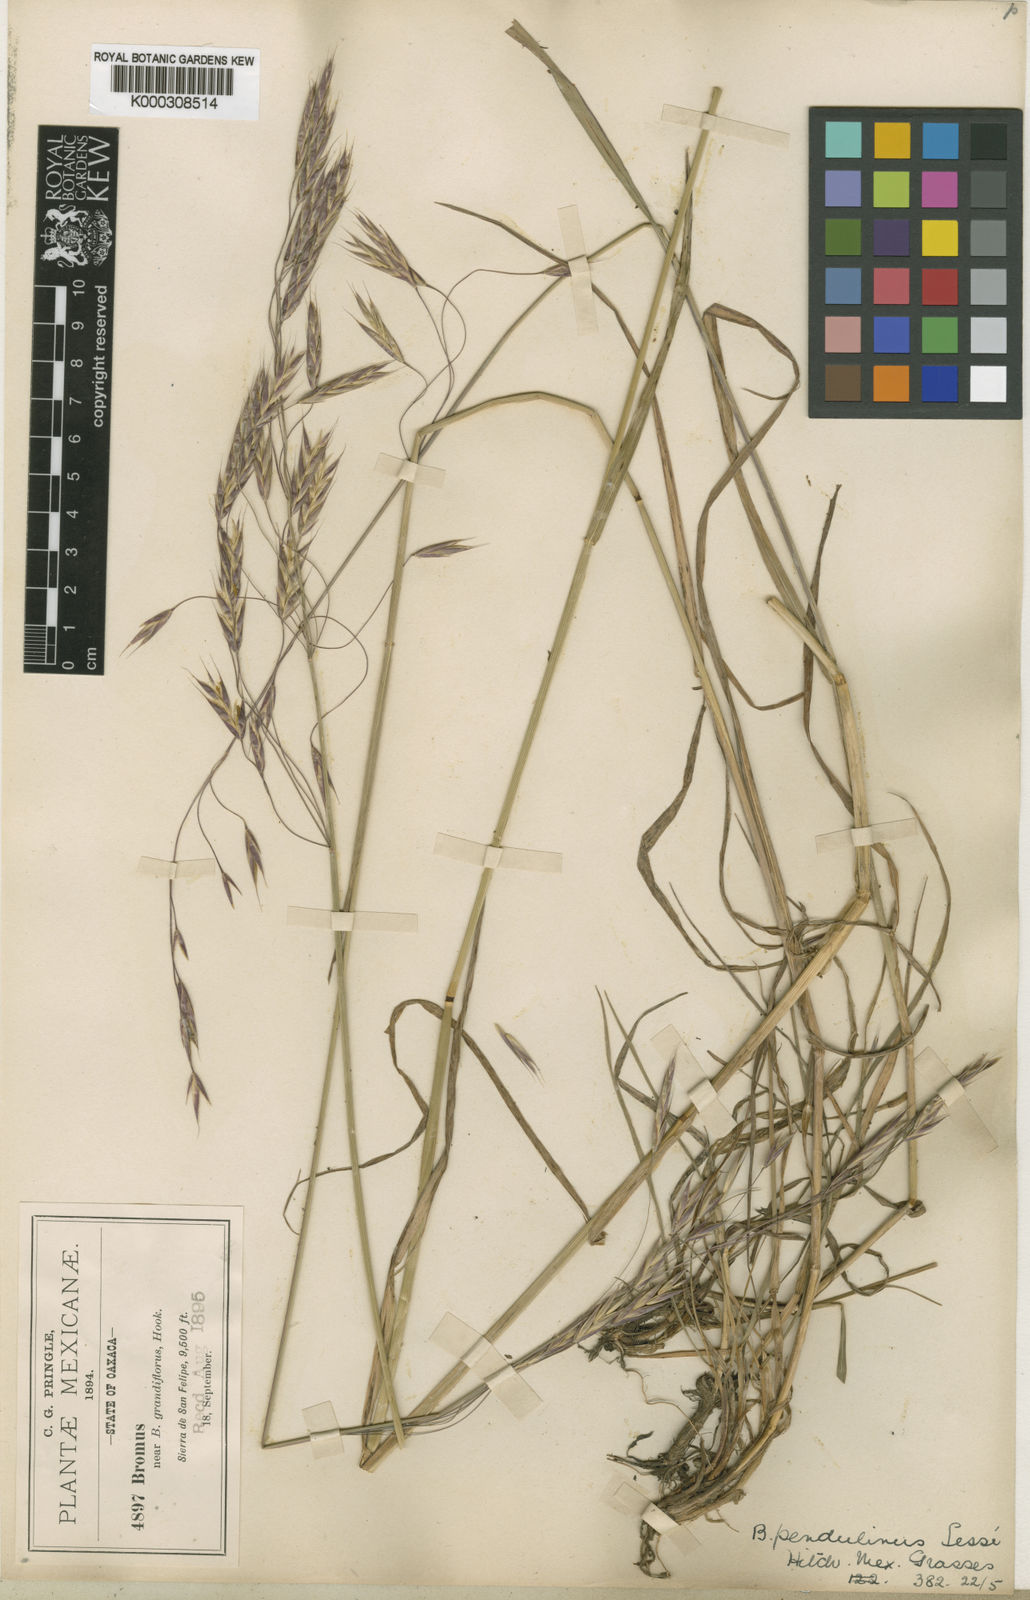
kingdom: Plantae
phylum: Tracheophyta
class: Liliopsida
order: Poales
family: Poaceae
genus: Bromus
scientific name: Bromus carinatus
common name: Mountain brome
